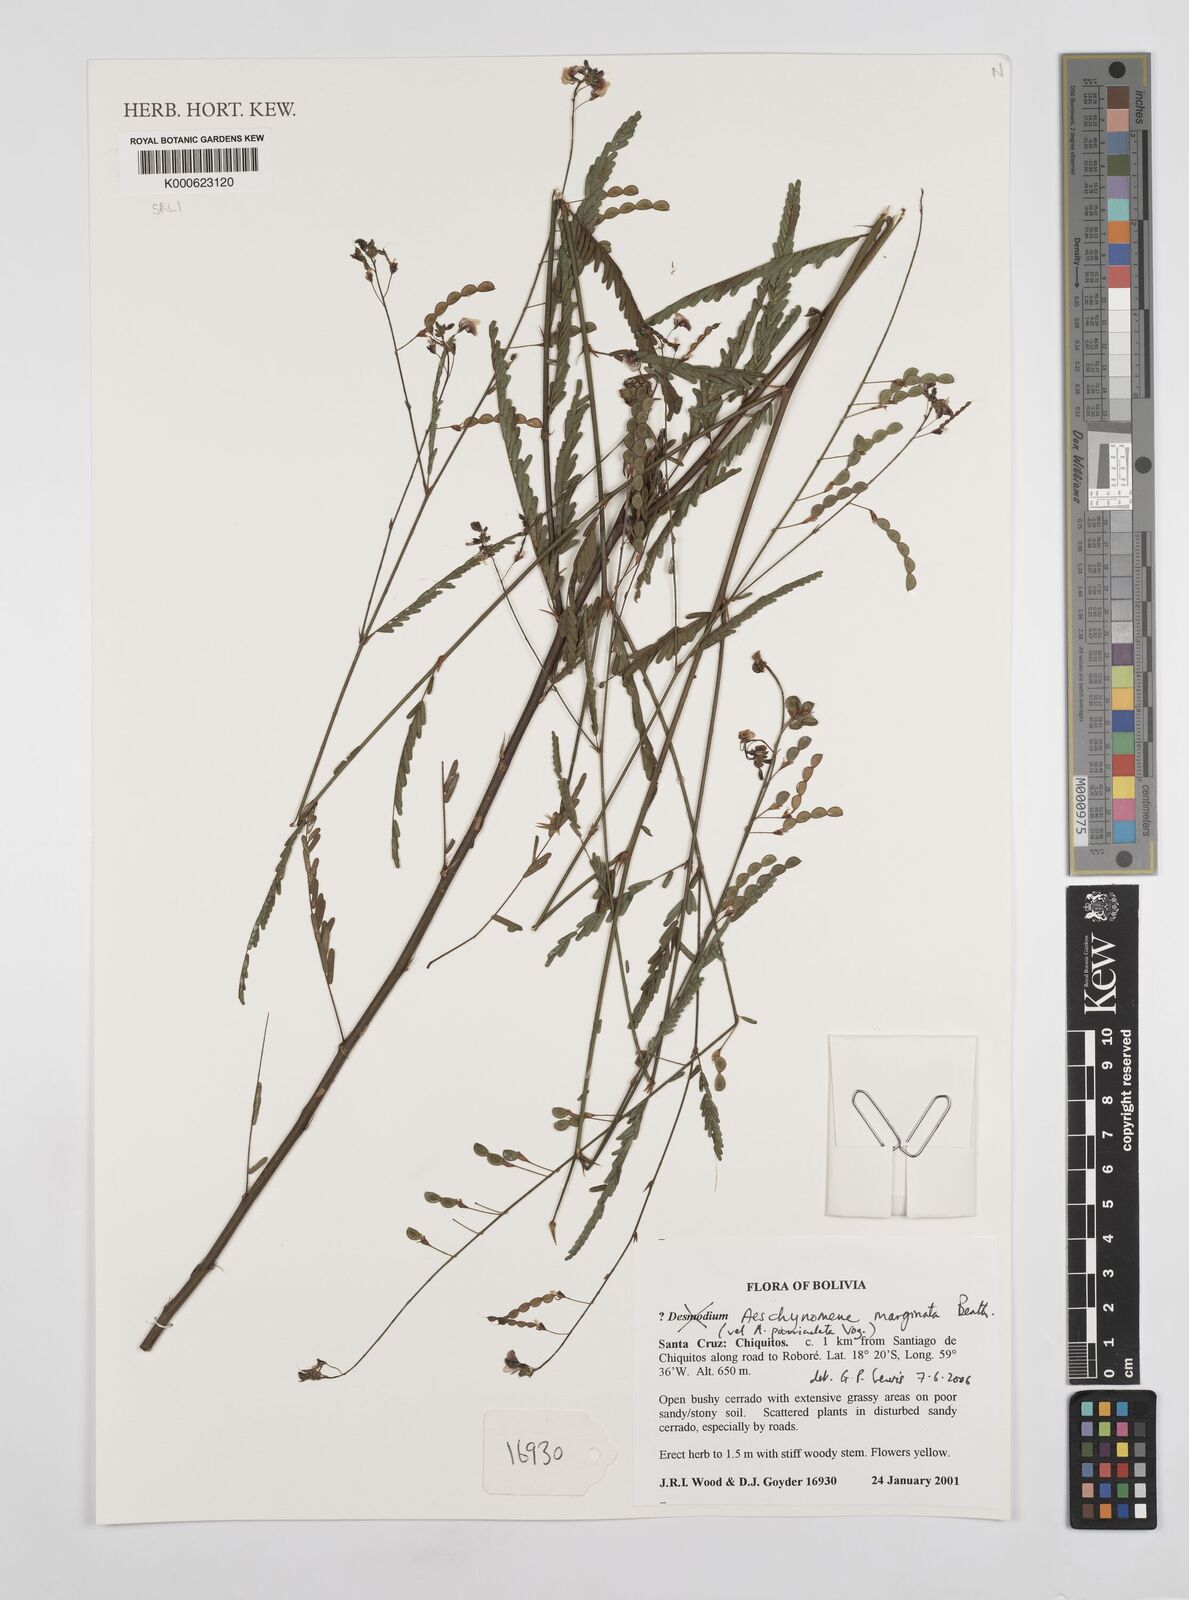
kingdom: Plantae
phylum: Tracheophyta
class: Magnoliopsida
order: Fabales
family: Fabaceae
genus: Ctenodon
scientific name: Ctenodon marginatus
